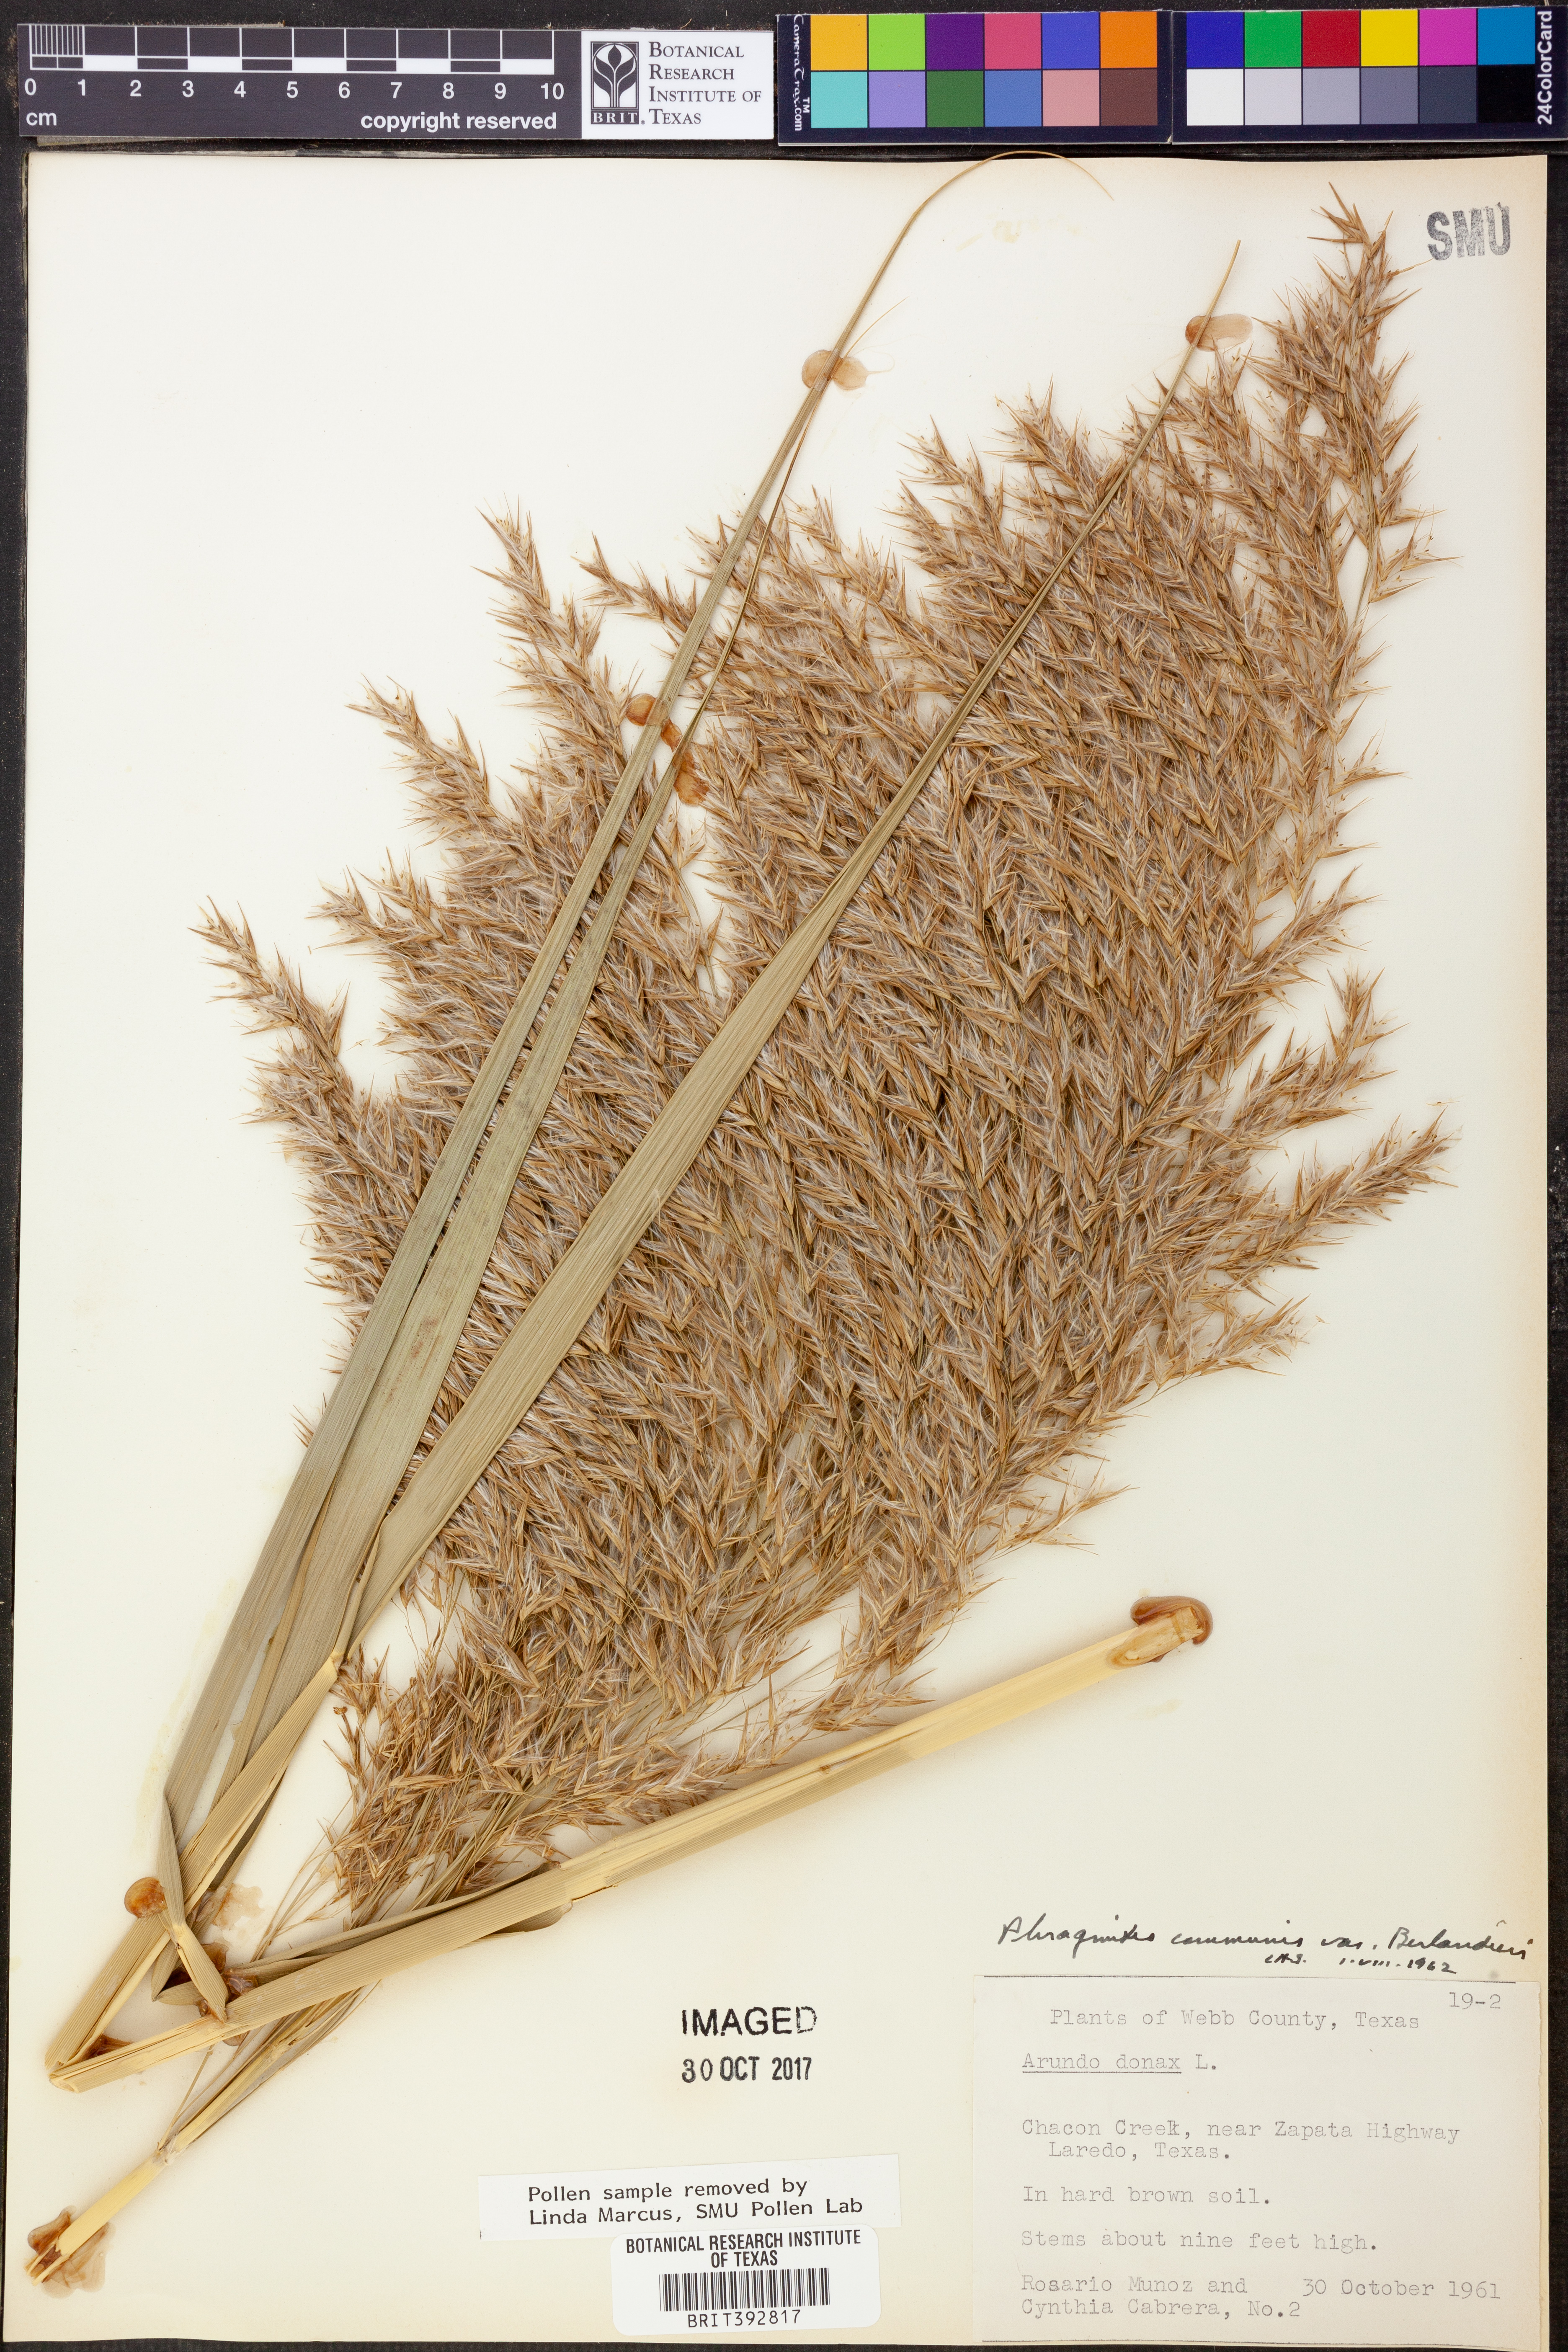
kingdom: Plantae
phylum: Tracheophyta
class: Liliopsida
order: Poales
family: Poaceae
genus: Phragmites
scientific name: Phragmites australis
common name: Common reed
